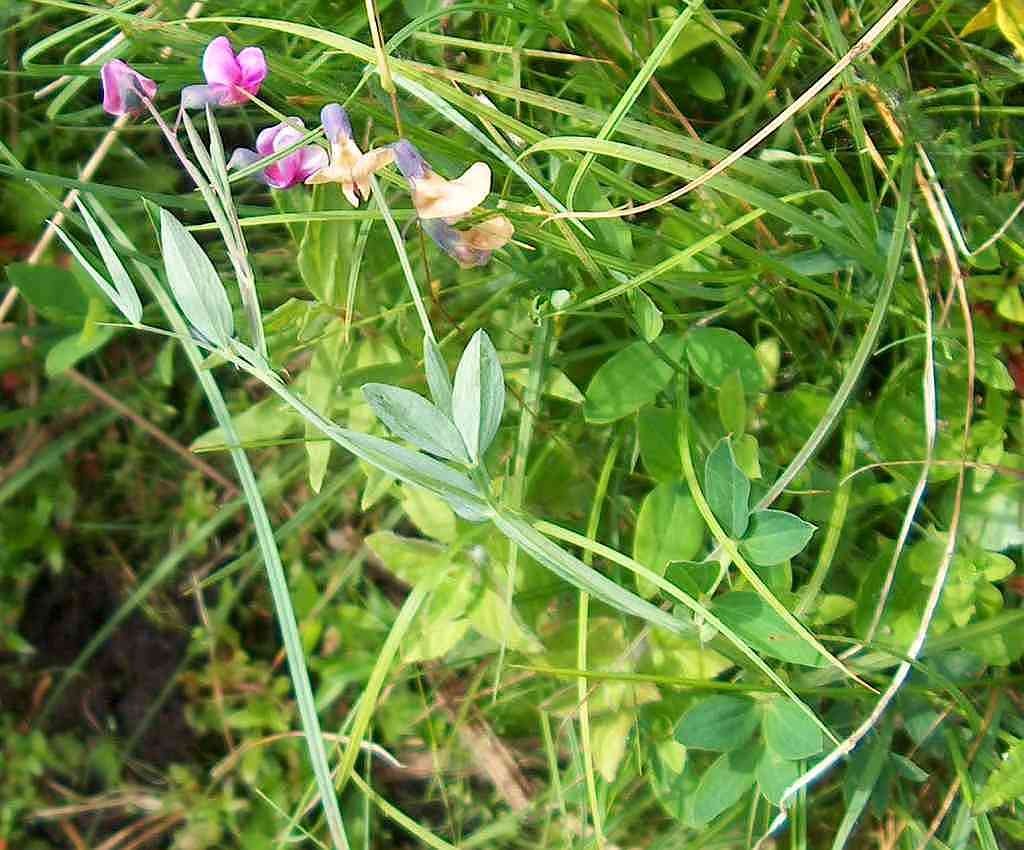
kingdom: Plantae
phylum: Tracheophyta
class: Magnoliopsida
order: Fabales
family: Fabaceae
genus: Lathyrus
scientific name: Lathyrus linifolius
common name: Krat-fladbælg
